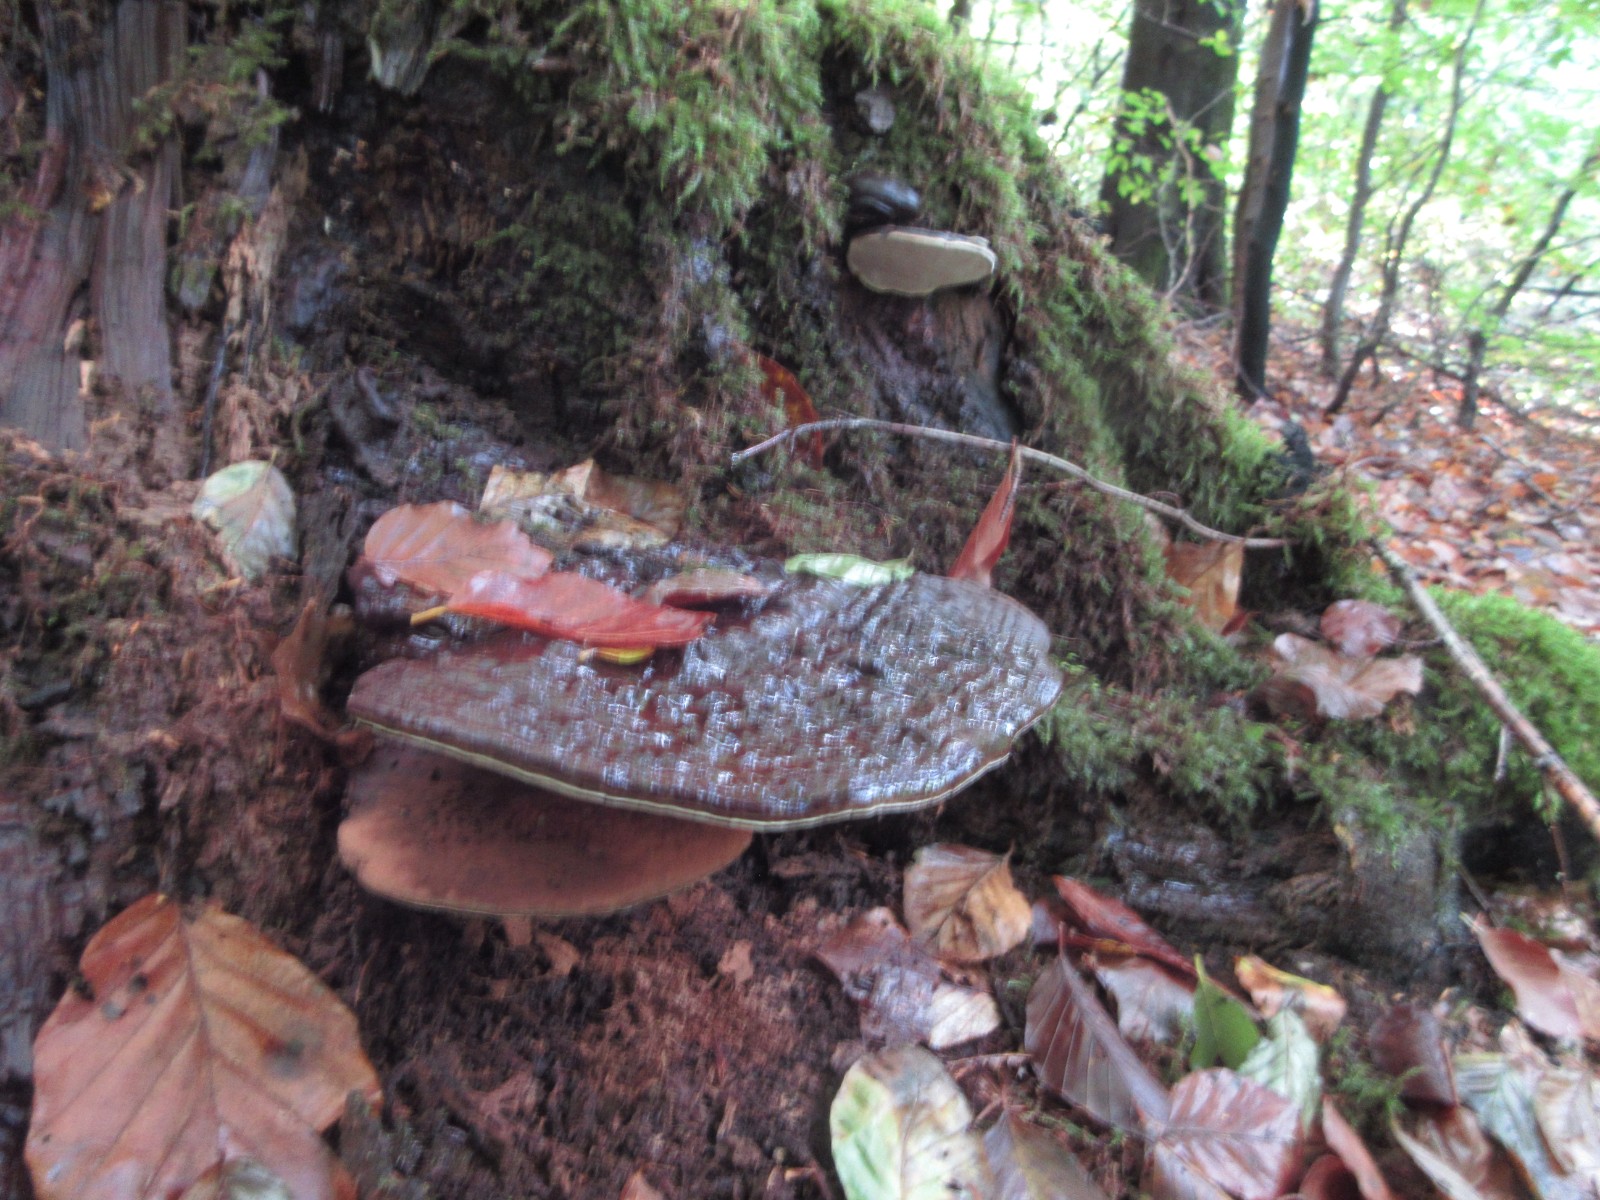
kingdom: Fungi
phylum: Basidiomycota
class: Agaricomycetes
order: Polyporales
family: Polyporaceae
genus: Ganoderma
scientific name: Ganoderma pfeifferi
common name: kobberrød lakporesvamp
